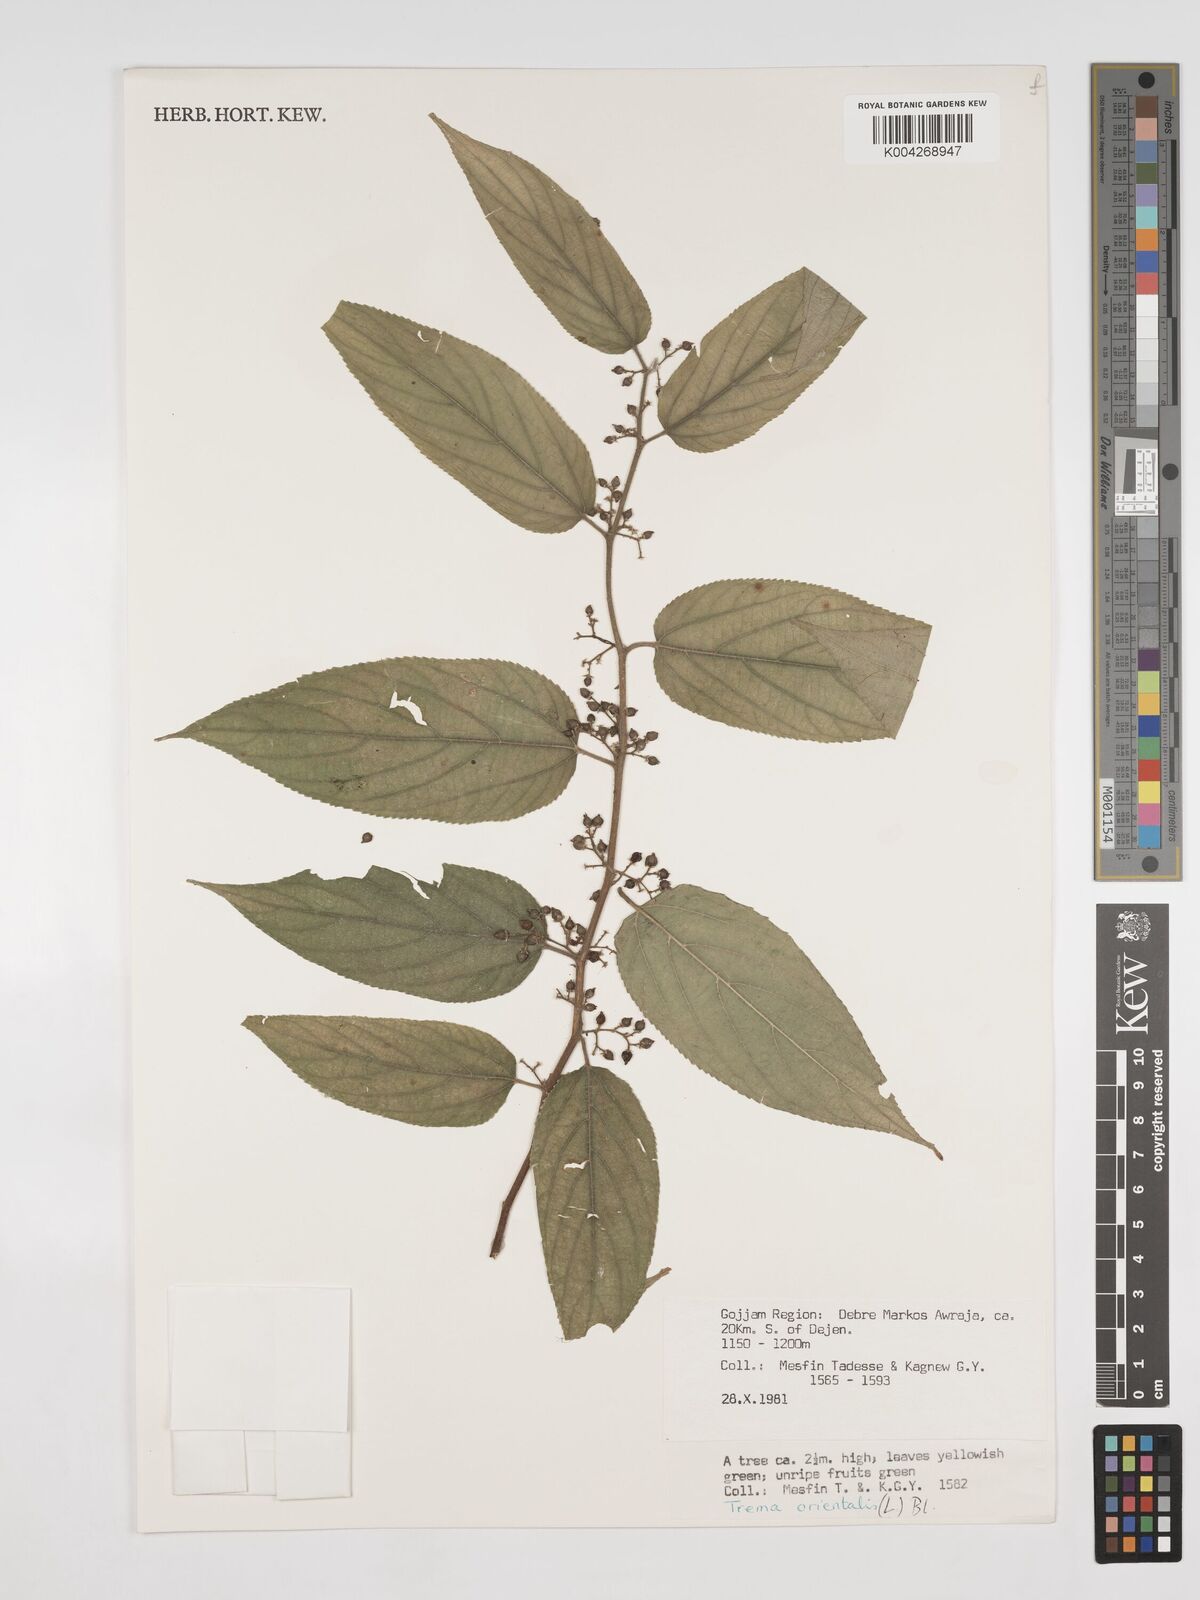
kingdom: Plantae
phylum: Tracheophyta
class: Magnoliopsida
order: Rosales
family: Cannabaceae
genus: Trema
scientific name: Trema orientale
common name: Indian charcoal tree
